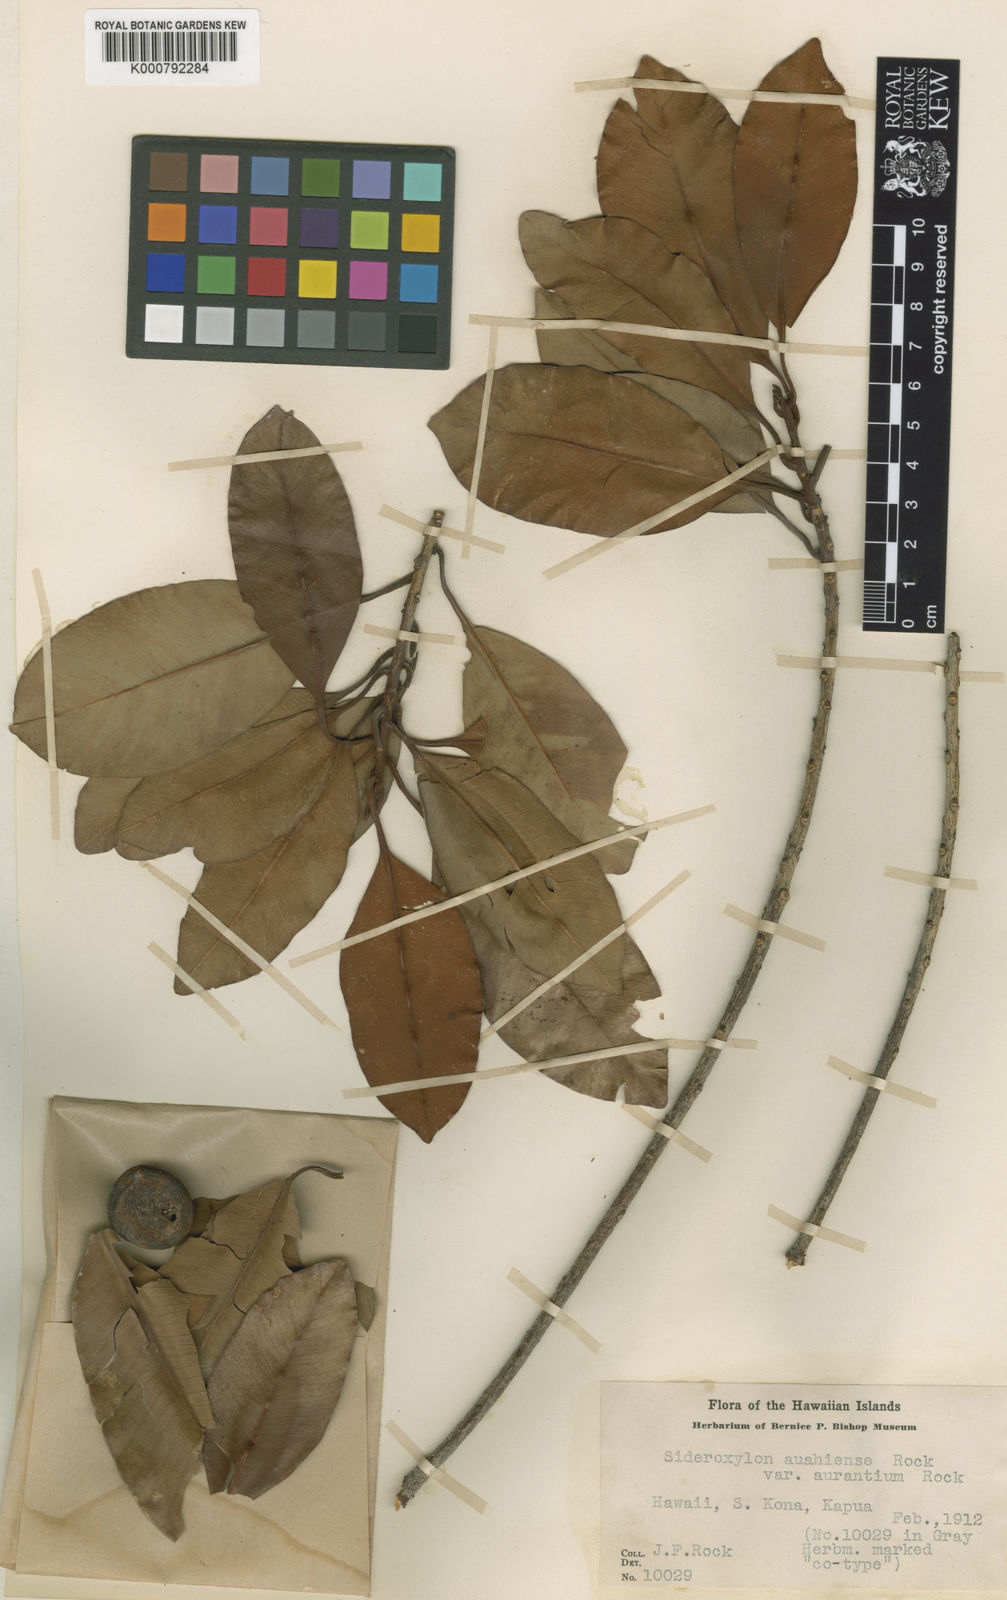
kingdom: Plantae
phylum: Tracheophyta
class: Magnoliopsida
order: Ericales
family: Sapotaceae
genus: Planchonella
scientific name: Planchonella spathulata
